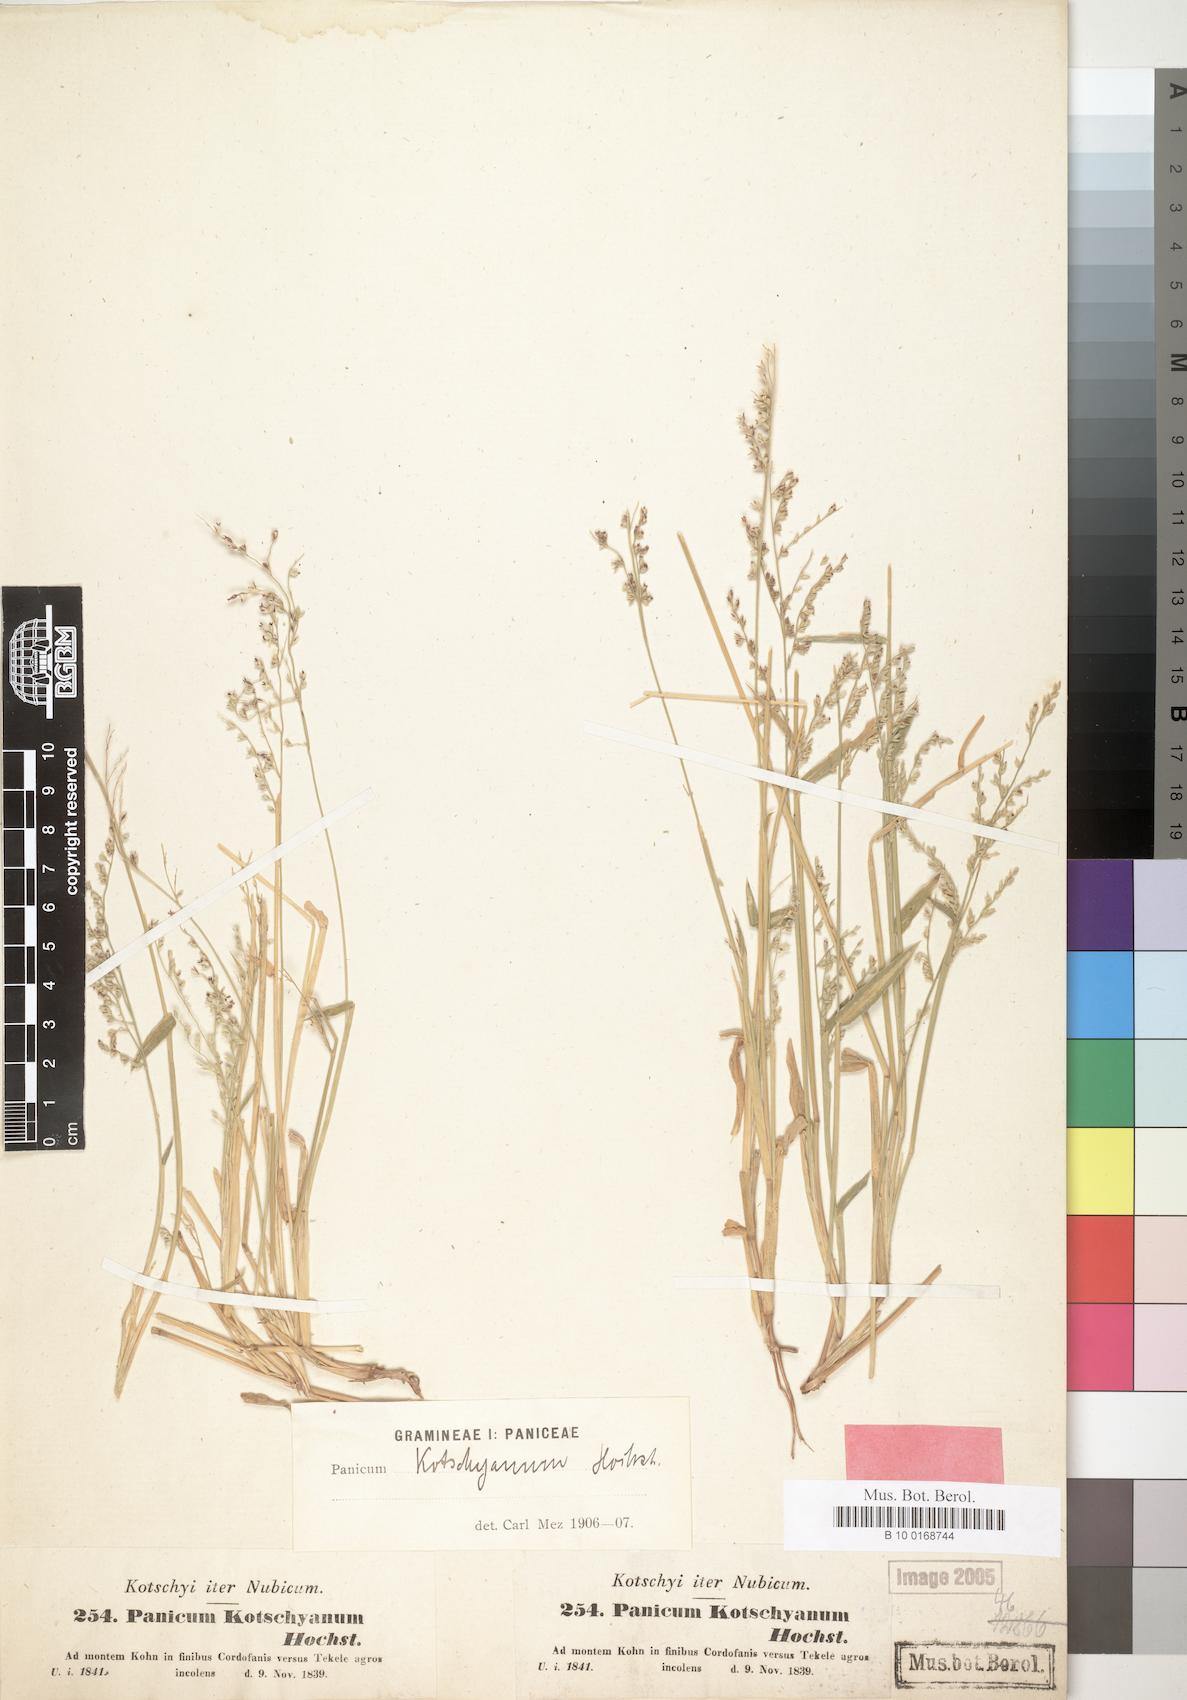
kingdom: Plantae
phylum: Tracheophyta
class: Liliopsida
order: Poales
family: Poaceae
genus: Urochloa
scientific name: Urochloa comata
